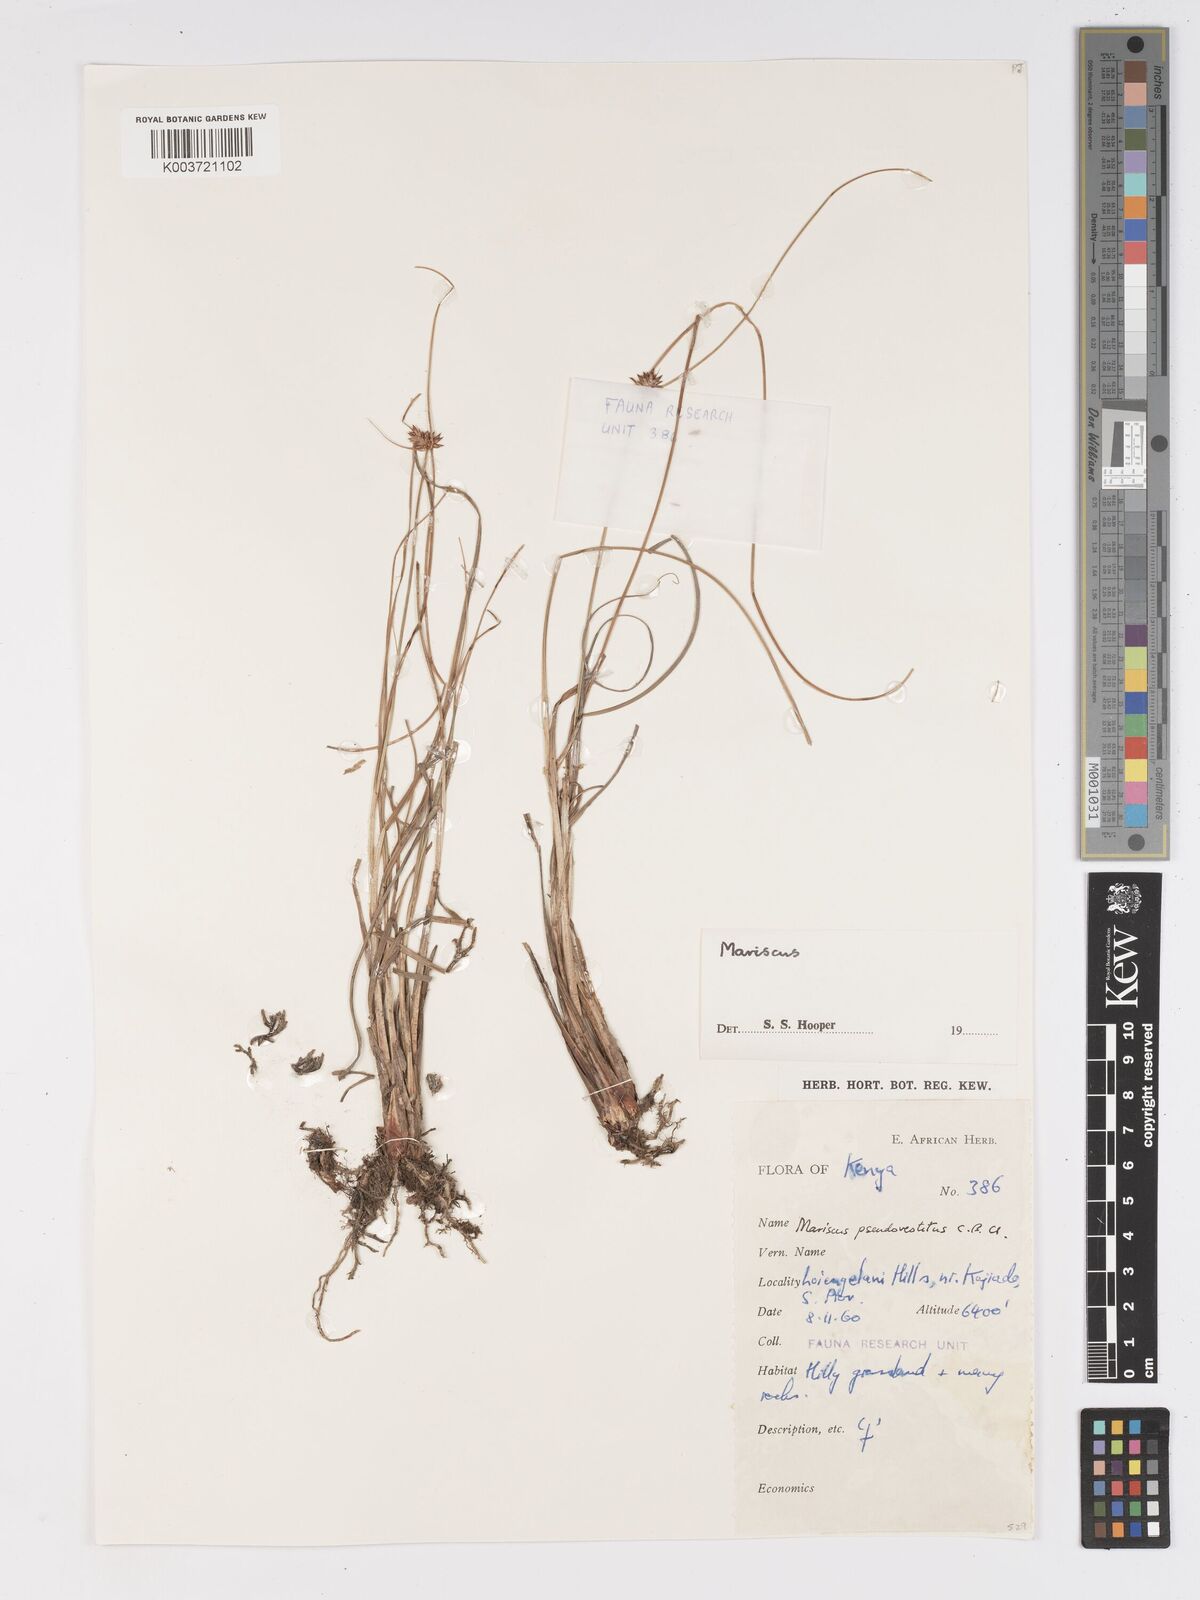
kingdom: Plantae
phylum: Tracheophyta
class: Liliopsida
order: Poales
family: Cyperaceae
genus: Cyperus
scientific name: Cyperus vestitus
